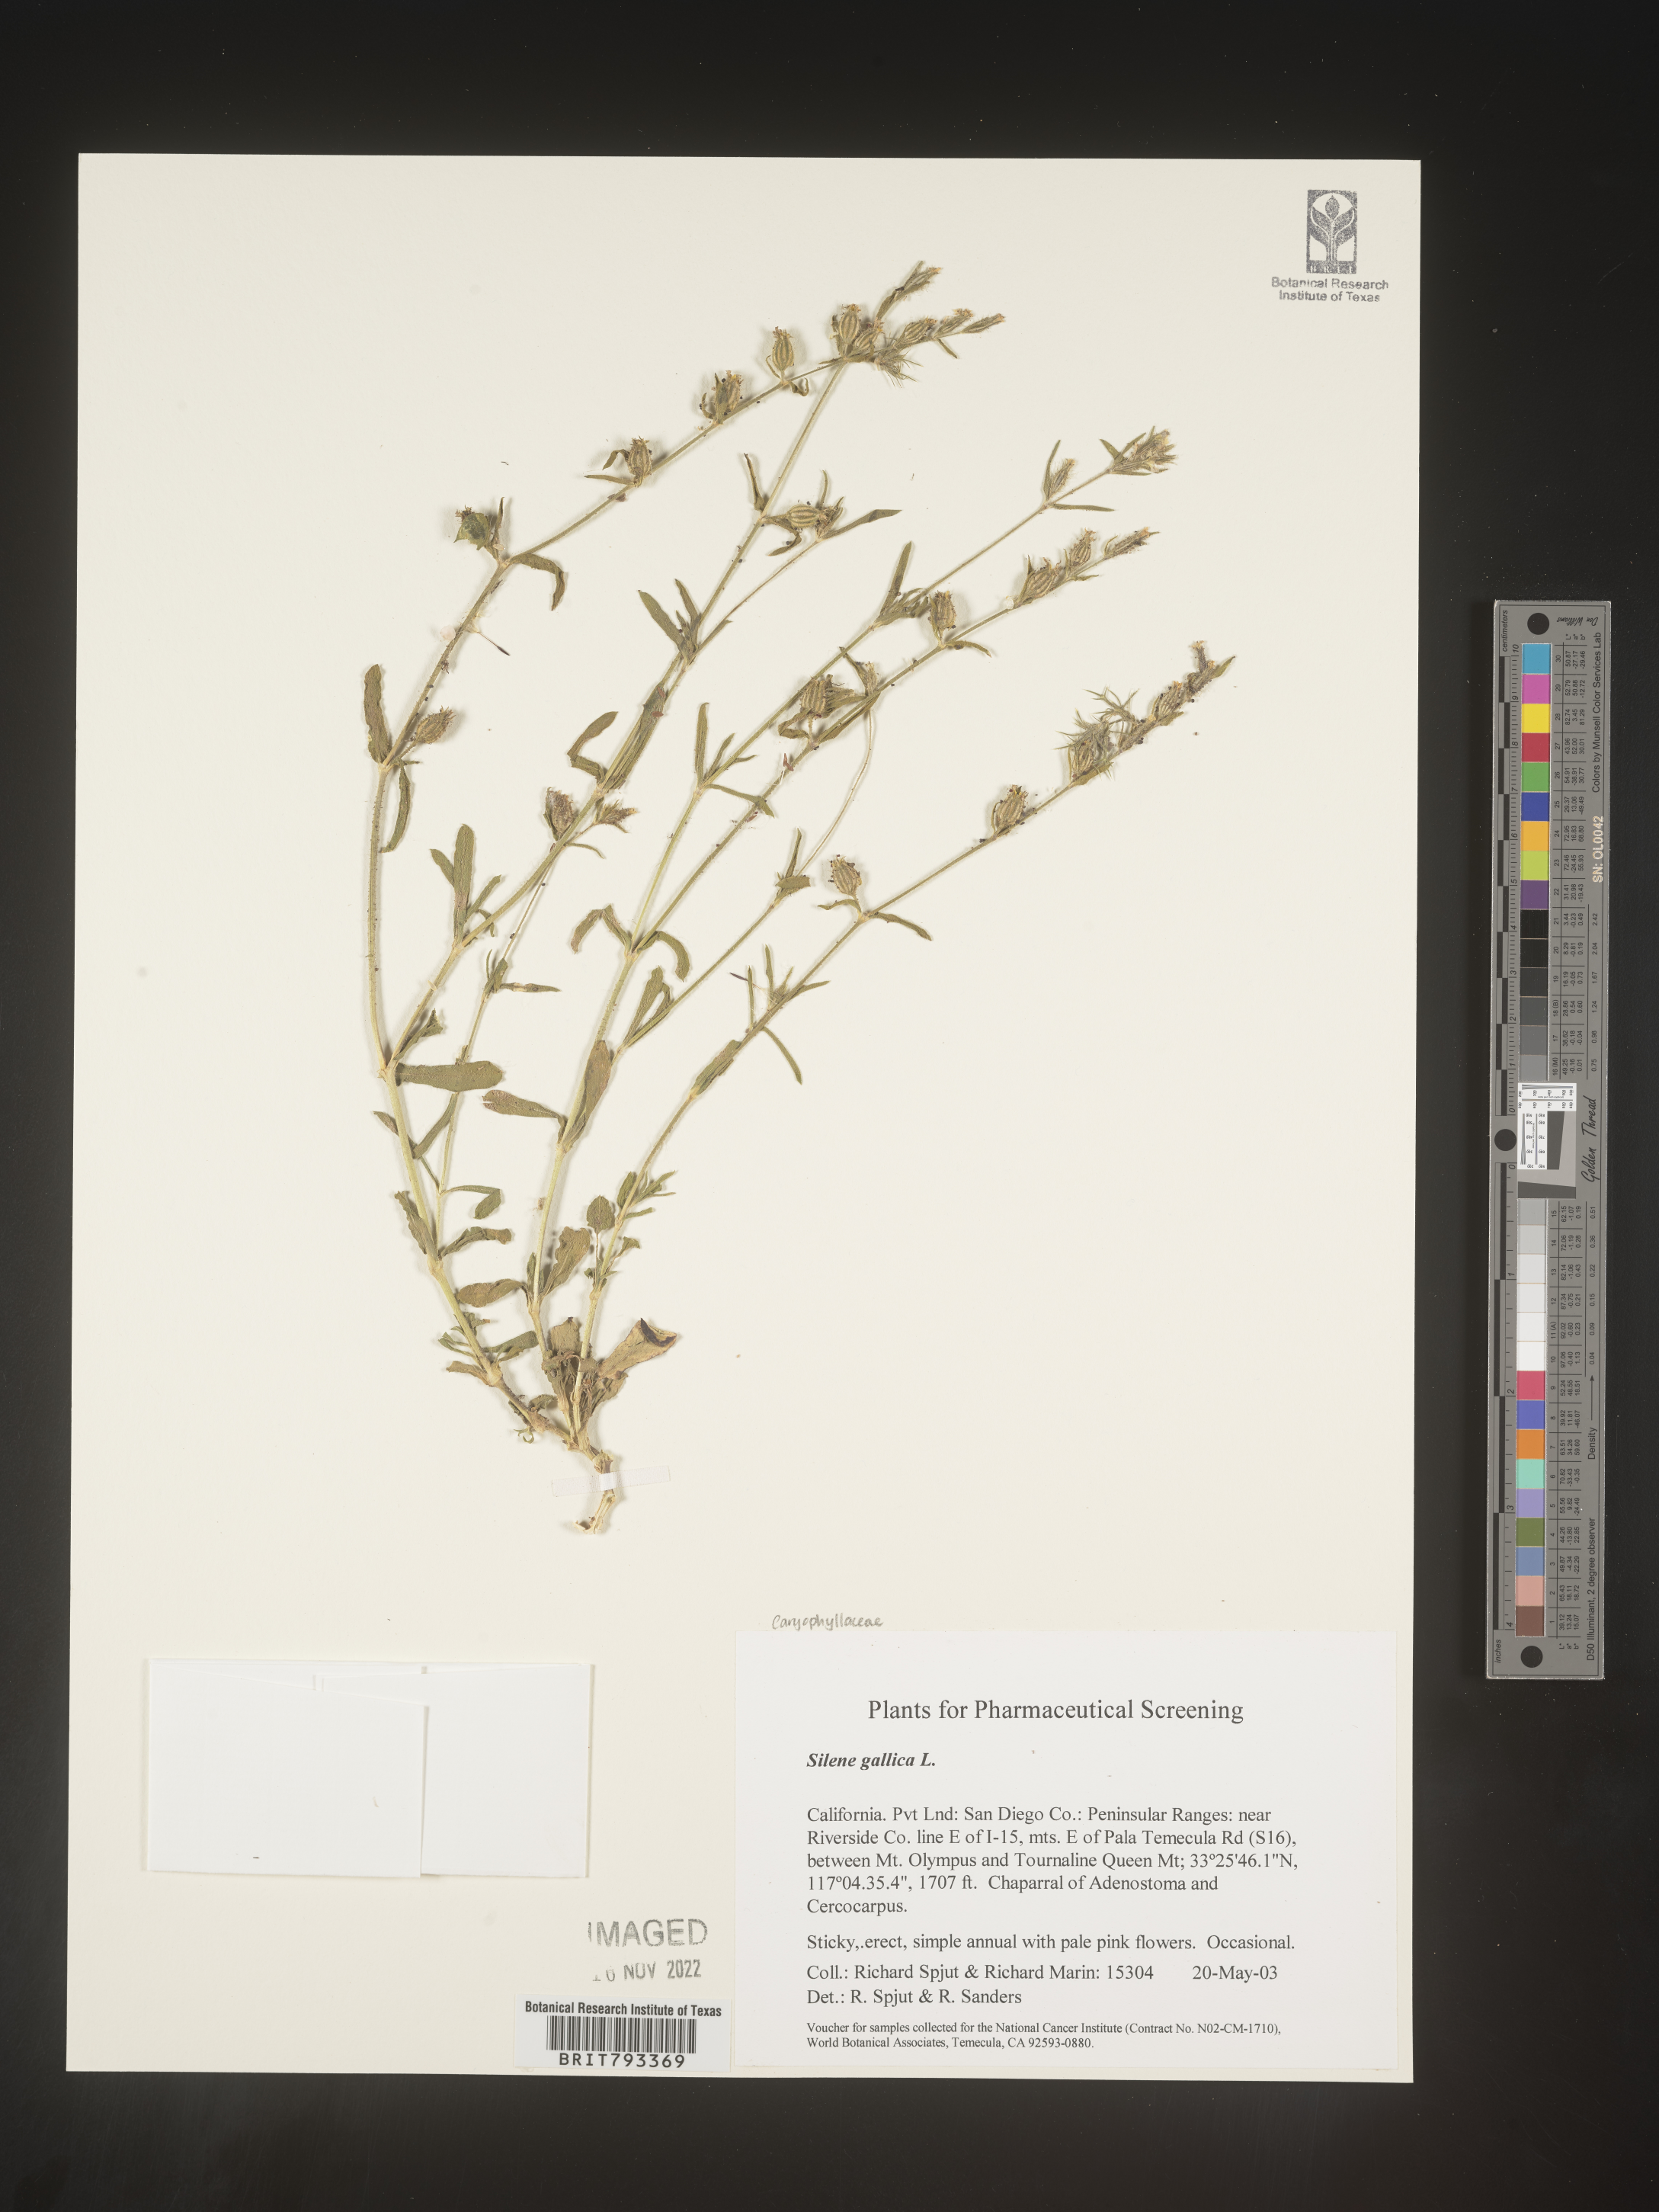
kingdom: Plantae
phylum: Tracheophyta
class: Magnoliopsida
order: Caryophyllales
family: Caryophyllaceae
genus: Silene
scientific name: Silene gallica
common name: Small-flowered catchfly
